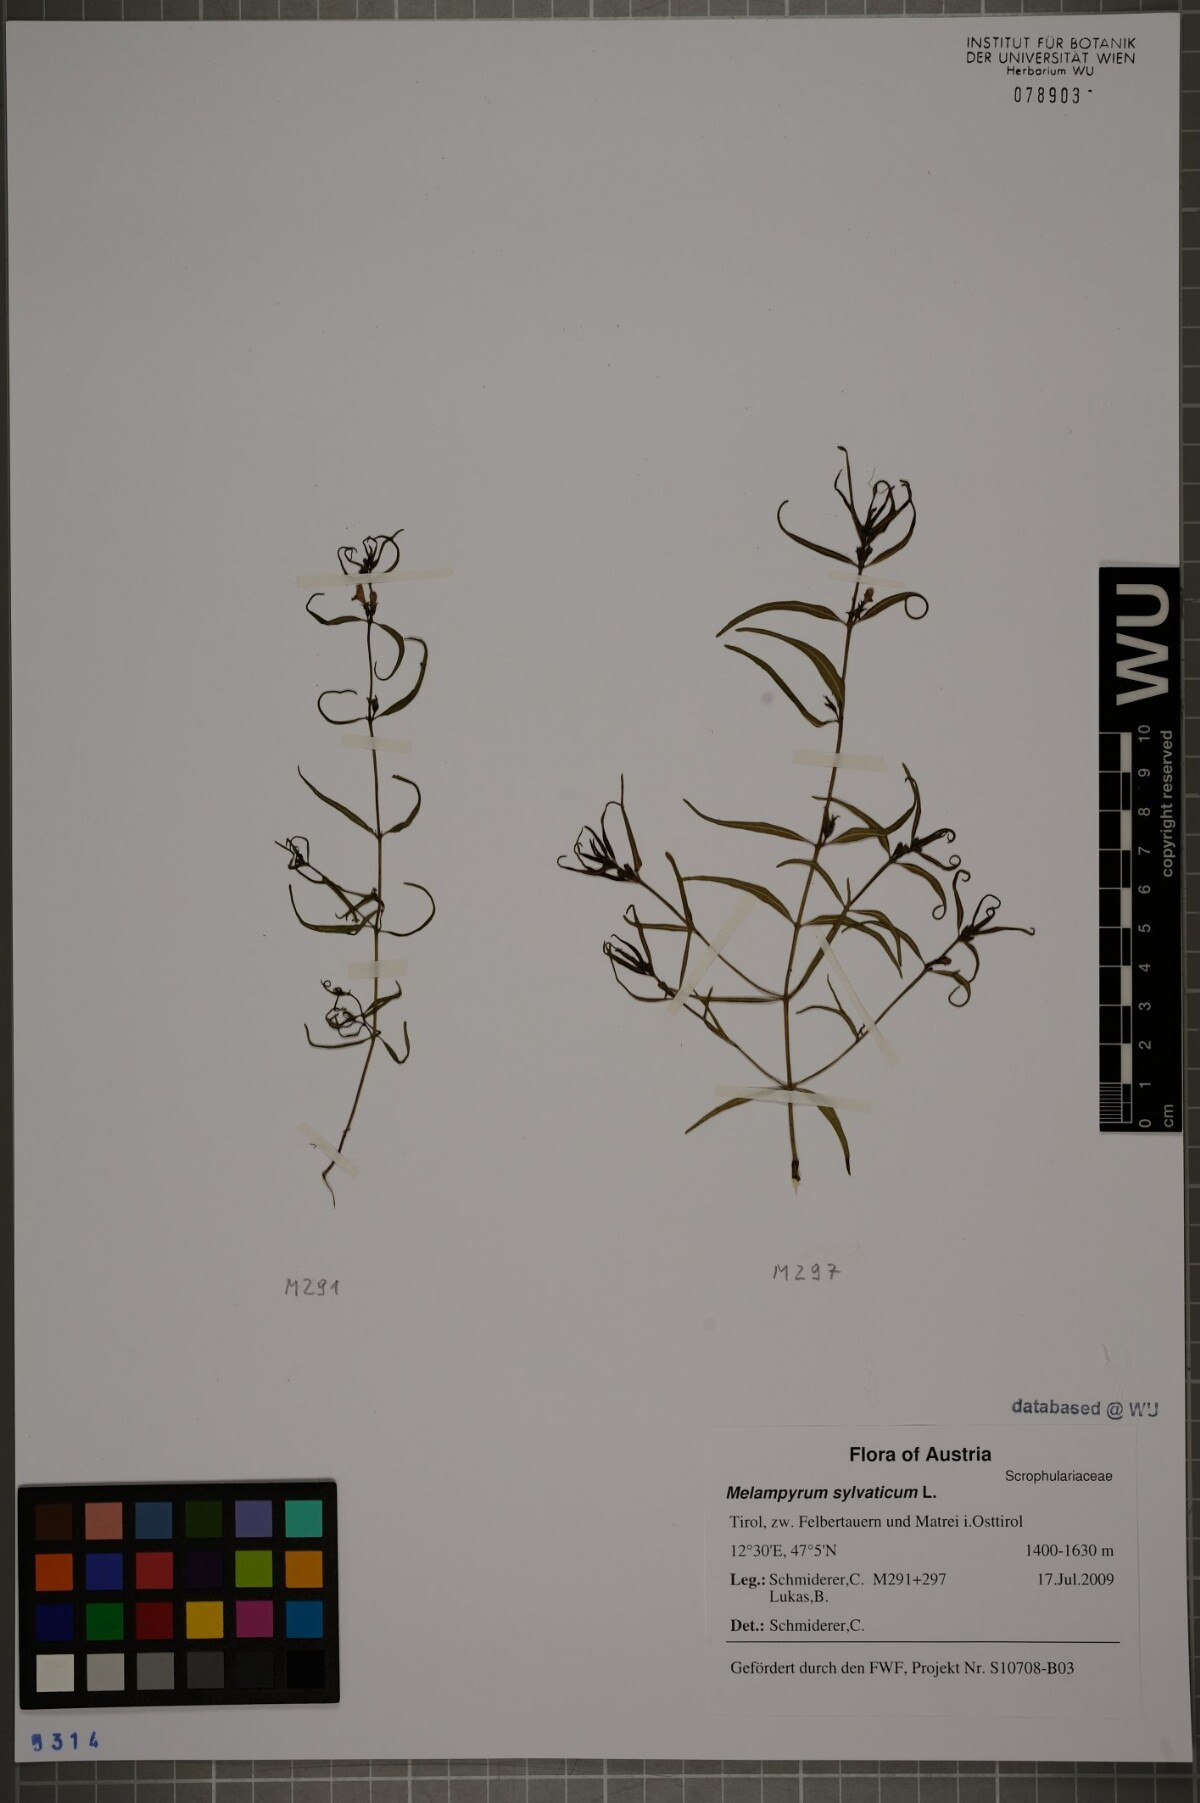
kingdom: Plantae
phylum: Tracheophyta
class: Magnoliopsida
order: Lamiales
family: Orobanchaceae
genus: Melampyrum
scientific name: Melampyrum sylvaticum
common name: Small cow-wheat
